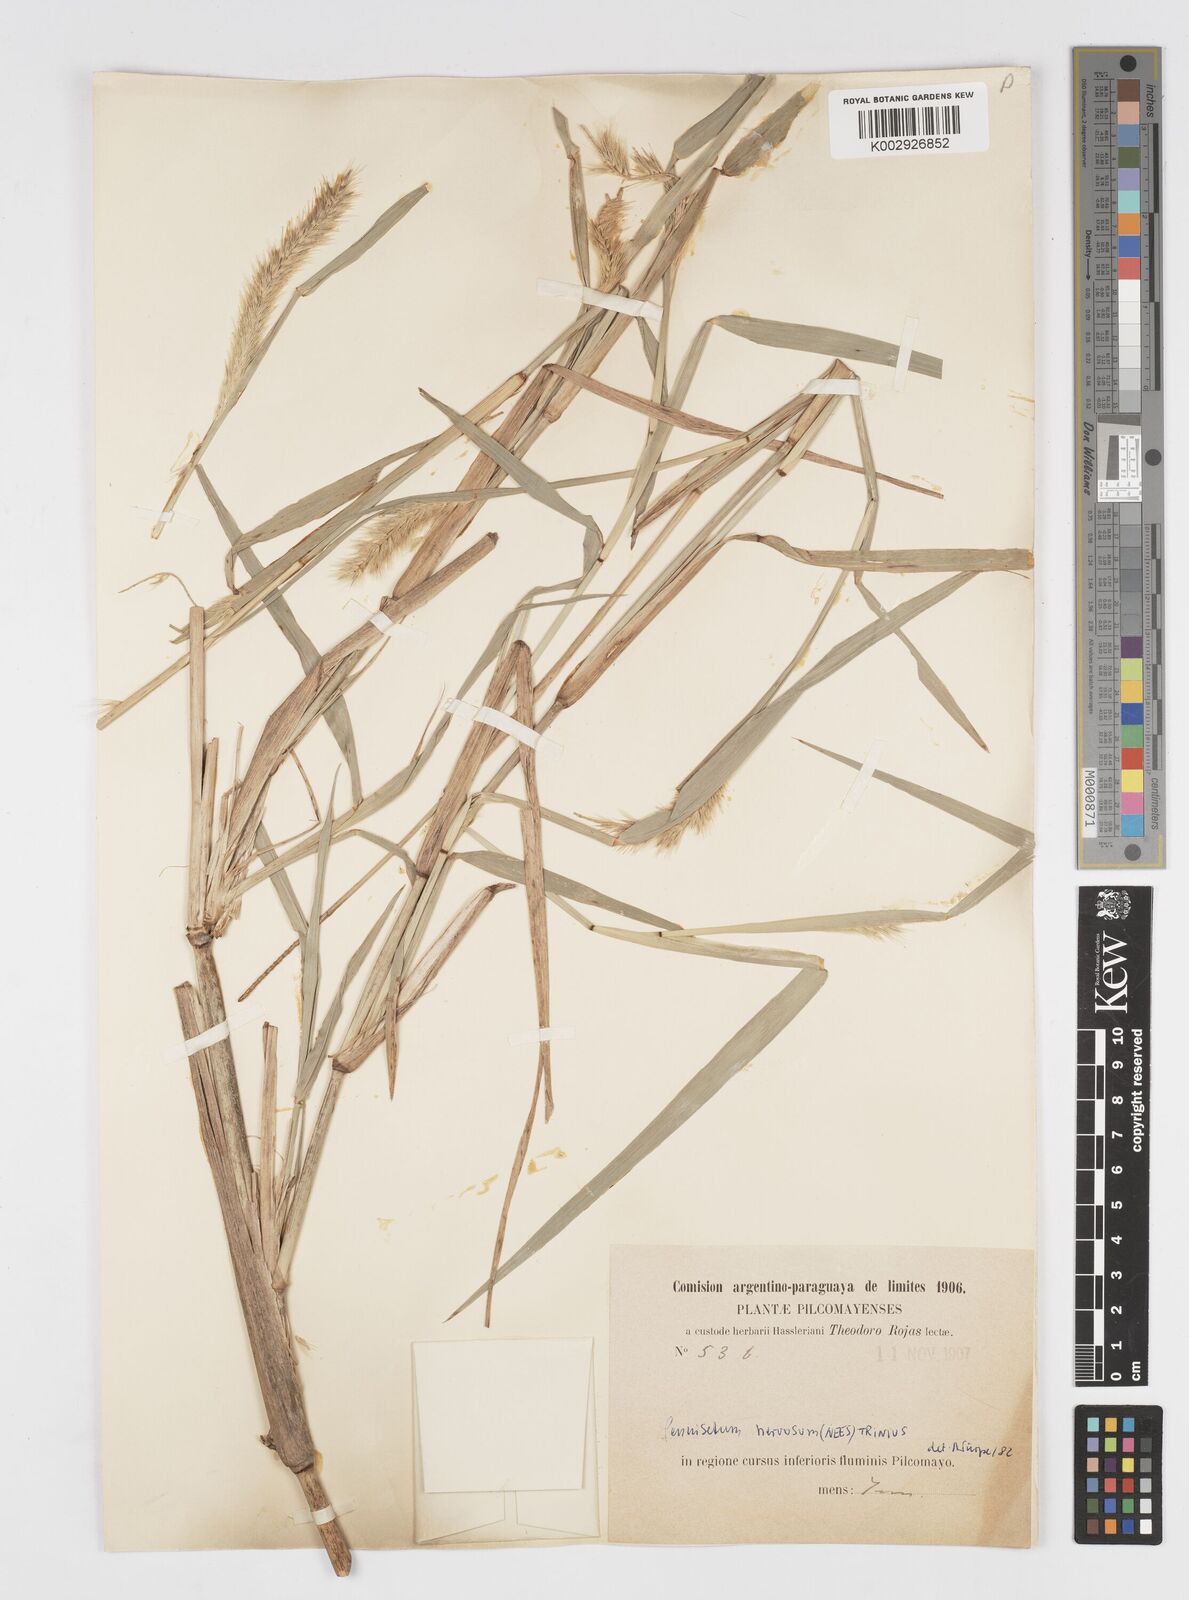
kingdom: Plantae
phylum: Tracheophyta
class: Liliopsida
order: Poales
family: Poaceae
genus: Cenchrus
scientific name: Cenchrus nervosus
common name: Bentspike fountaingrass
